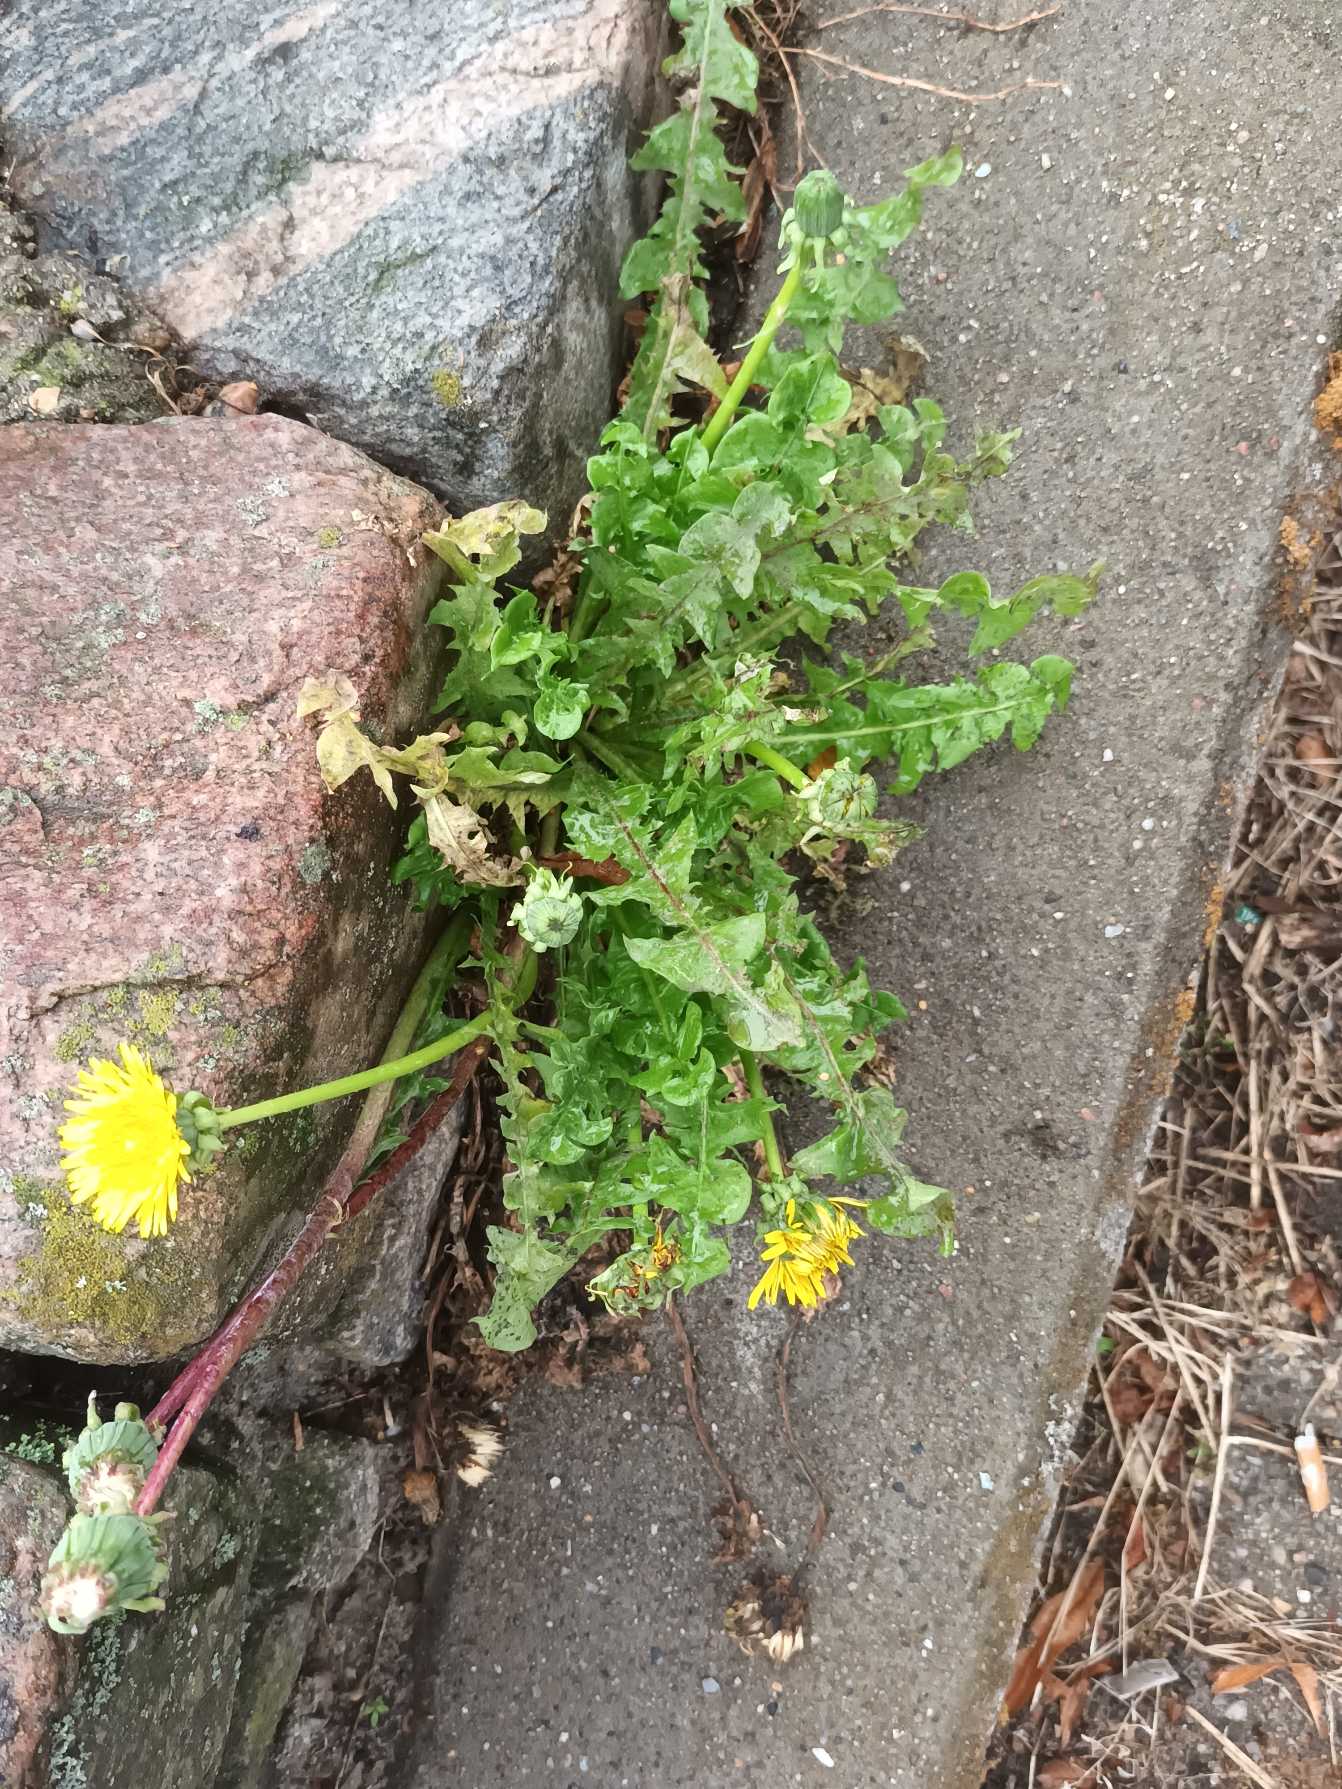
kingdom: Plantae
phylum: Tracheophyta
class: Magnoliopsida
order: Asterales
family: Asteraceae
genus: Taraxacum
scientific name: Taraxacum
